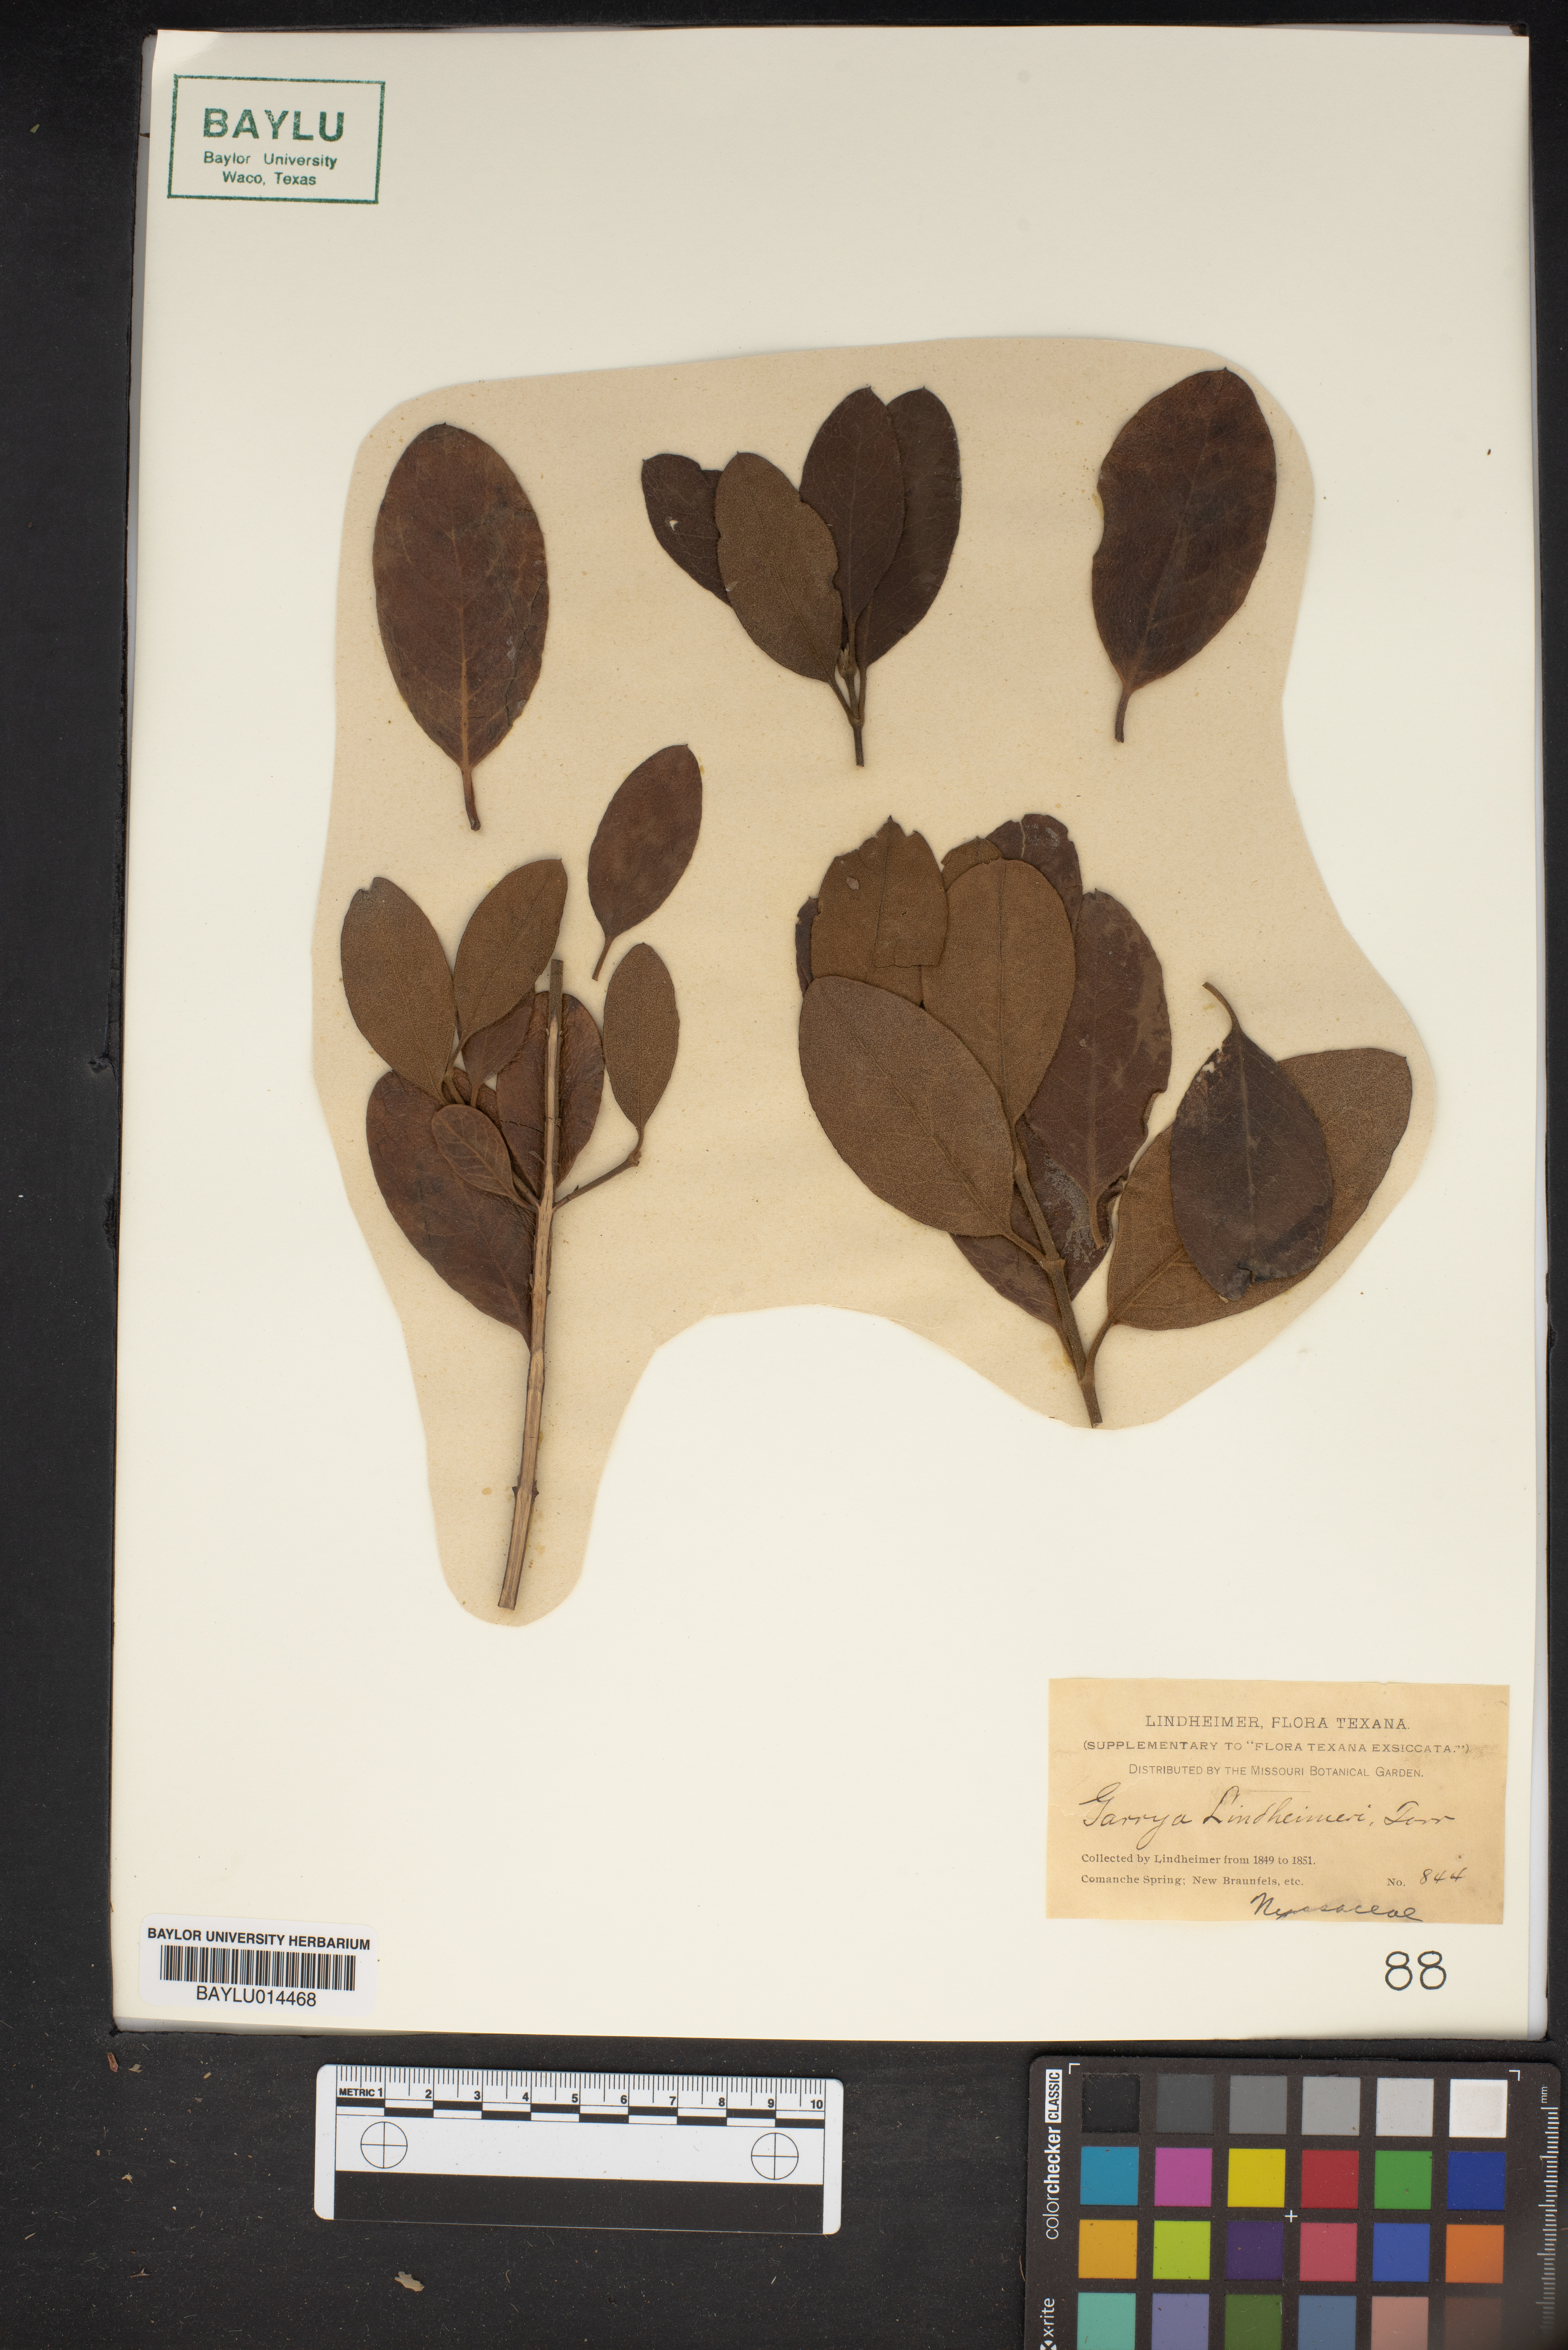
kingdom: Plantae
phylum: Tracheophyta
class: Magnoliopsida
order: Garryales
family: Garryaceae
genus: Garrya
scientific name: Garrya lindheimeri
